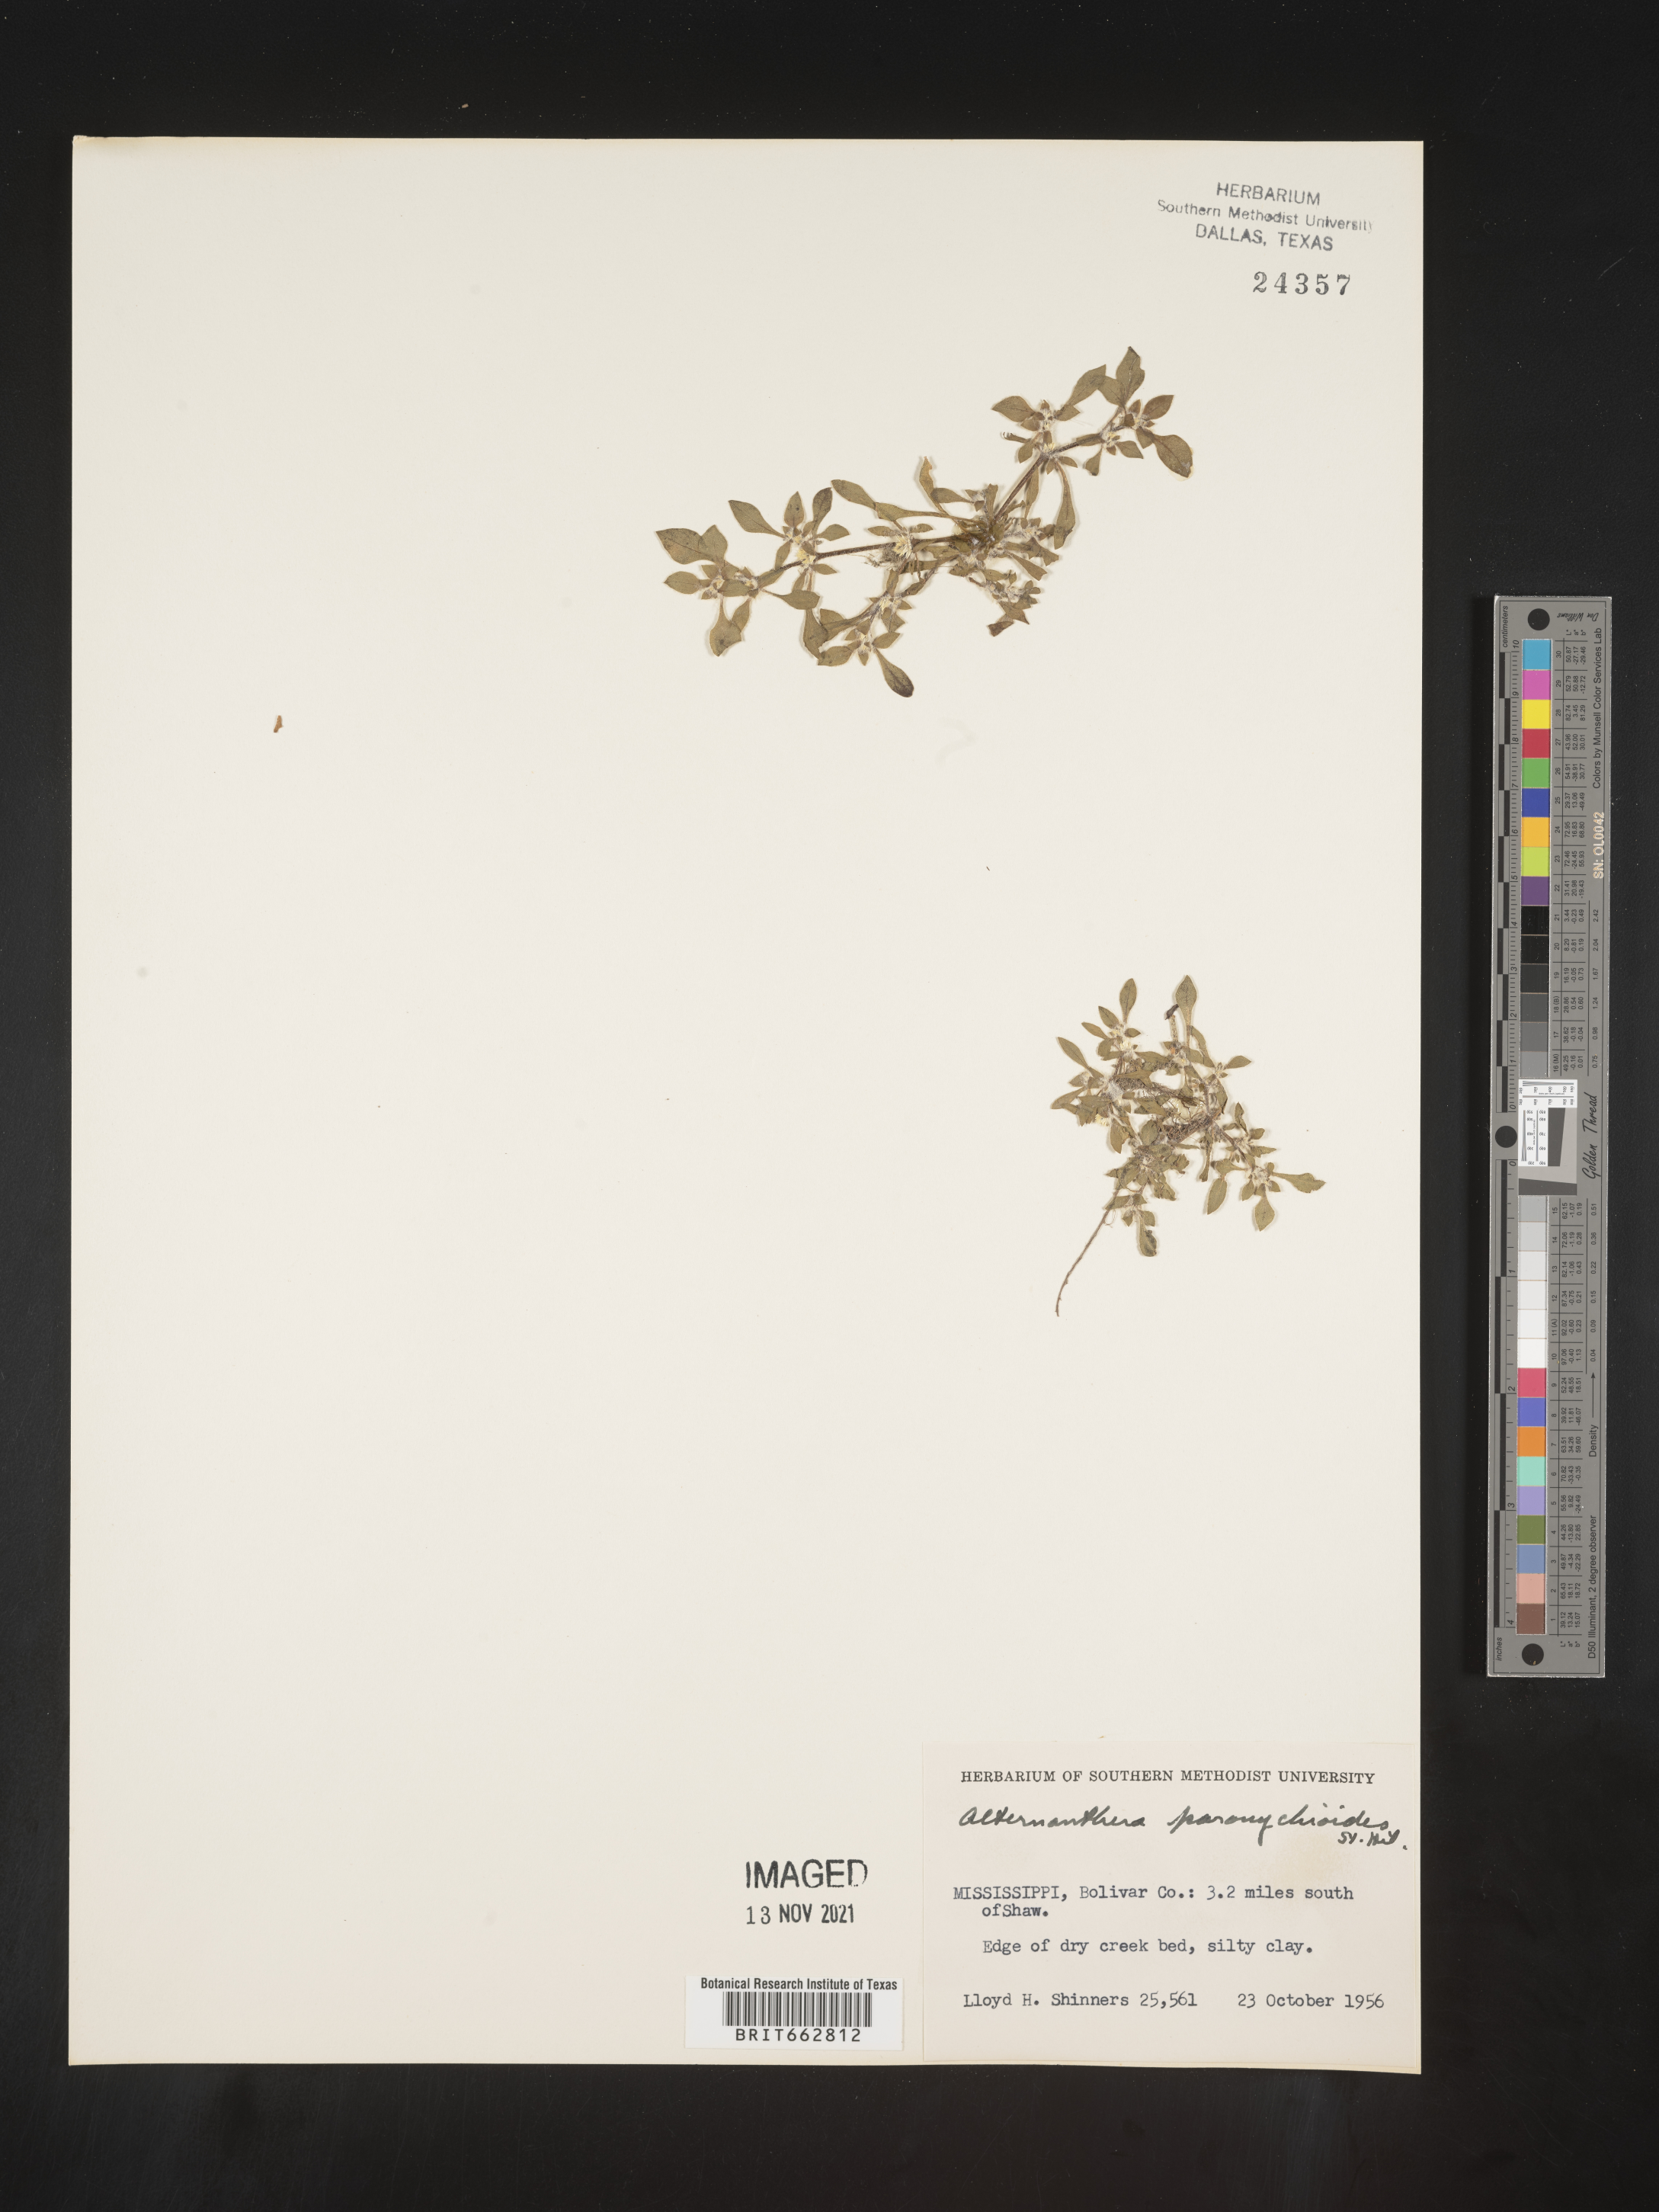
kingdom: Plantae
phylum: Tracheophyta
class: Magnoliopsida
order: Caryophyllales
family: Amaranthaceae
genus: Alternanthera
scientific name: Alternanthera paronychioides
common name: Smooth joyweed
